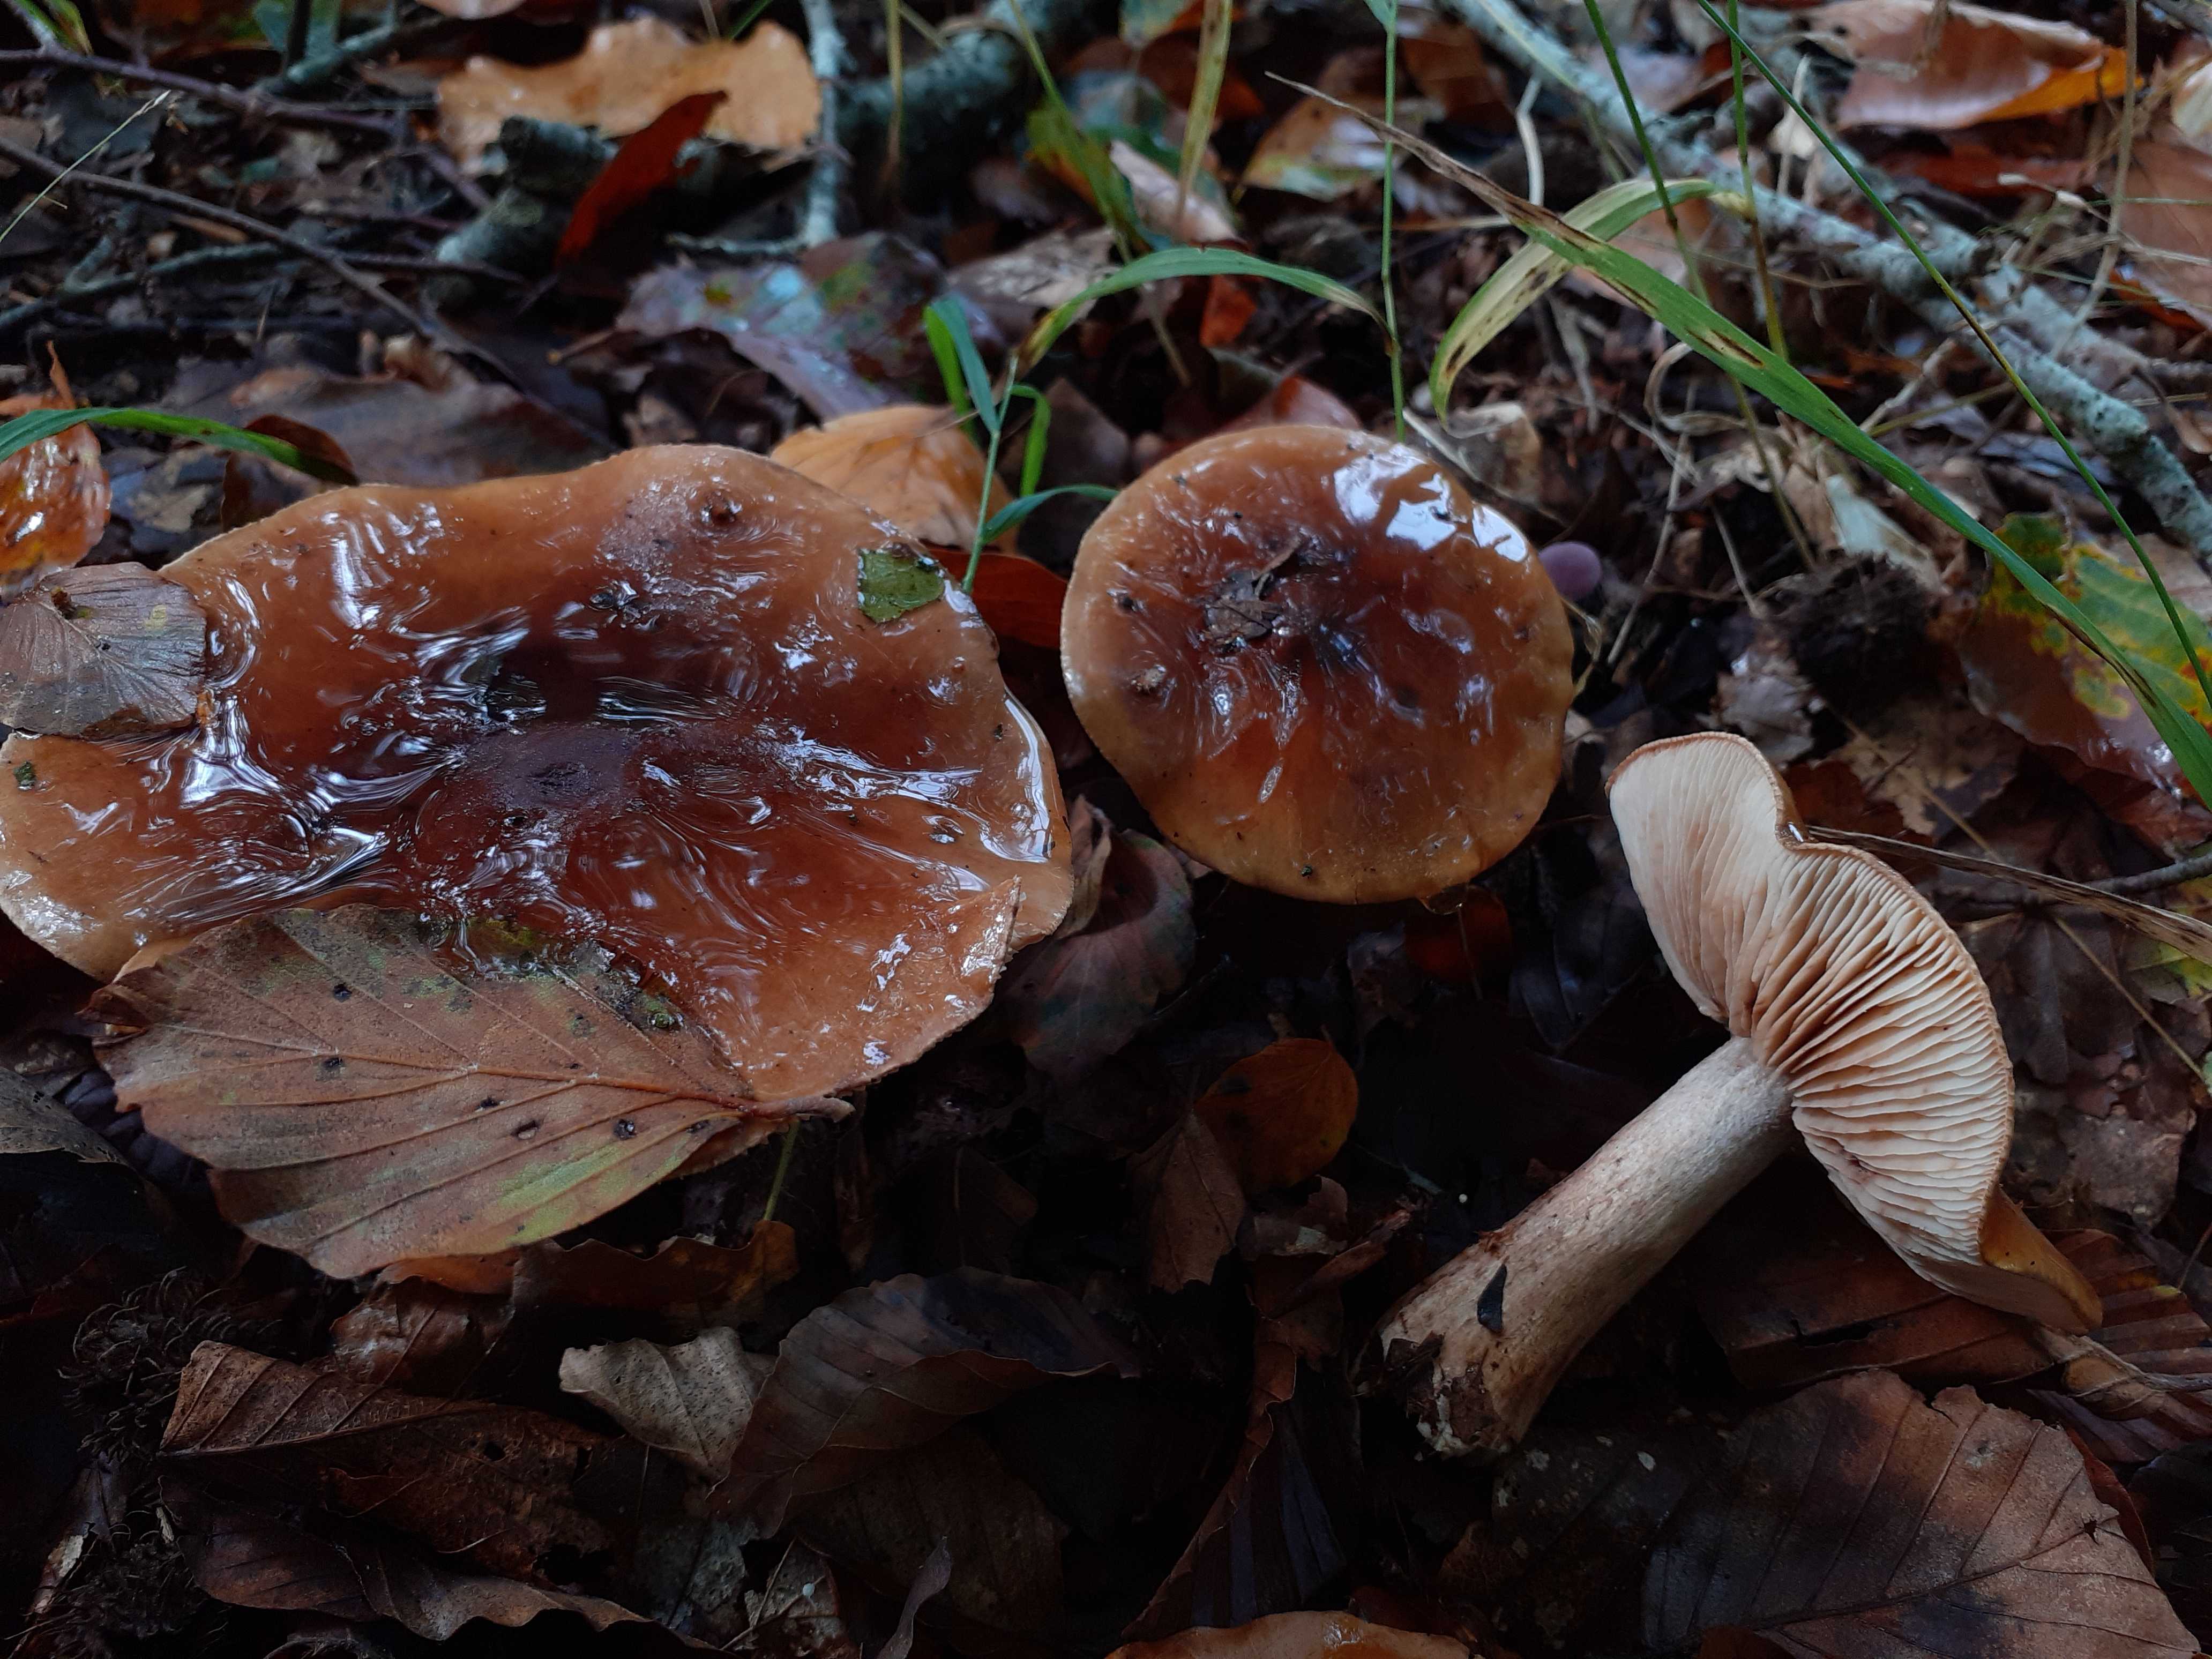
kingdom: Fungi
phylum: Basidiomycota
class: Agaricomycetes
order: Agaricales
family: Tricholomataceae
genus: Tricholoma
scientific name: Tricholoma ustale
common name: sveden ridderhat
